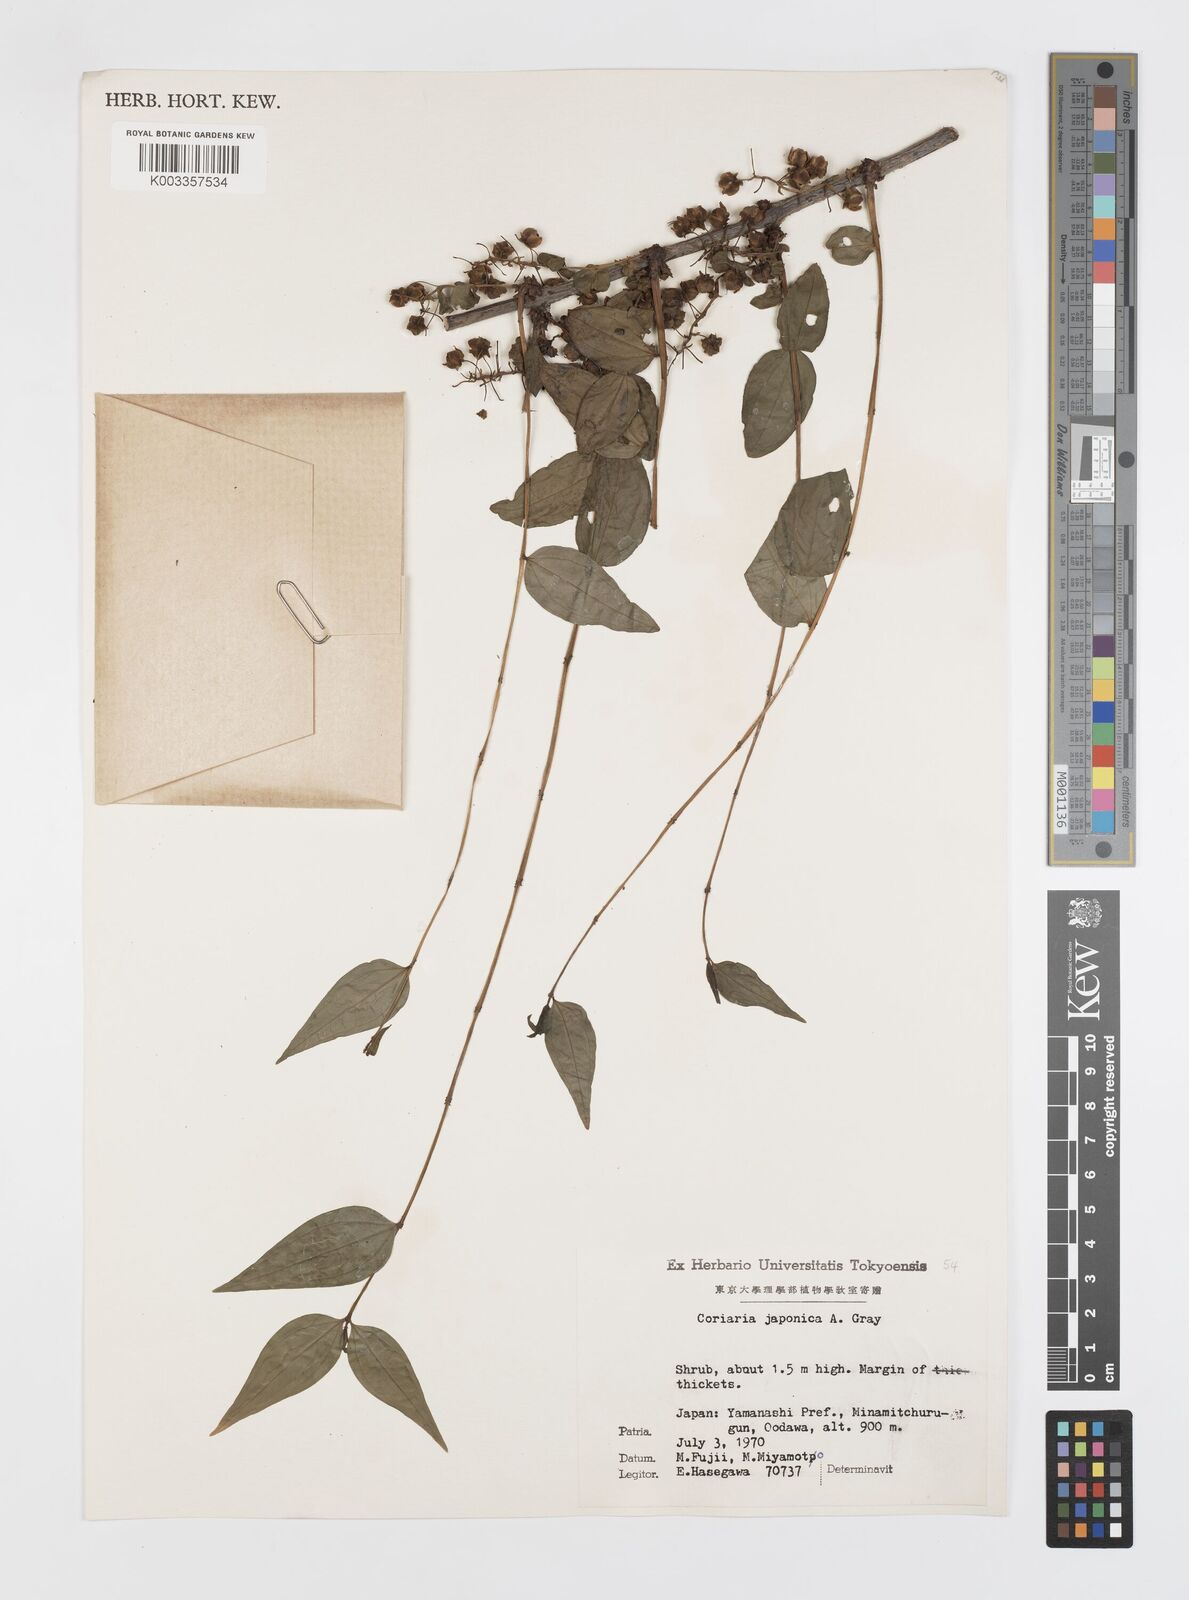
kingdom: Plantae
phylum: Tracheophyta
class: Magnoliopsida
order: Cucurbitales
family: Coriariaceae
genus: Coriaria
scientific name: Coriaria japonica
